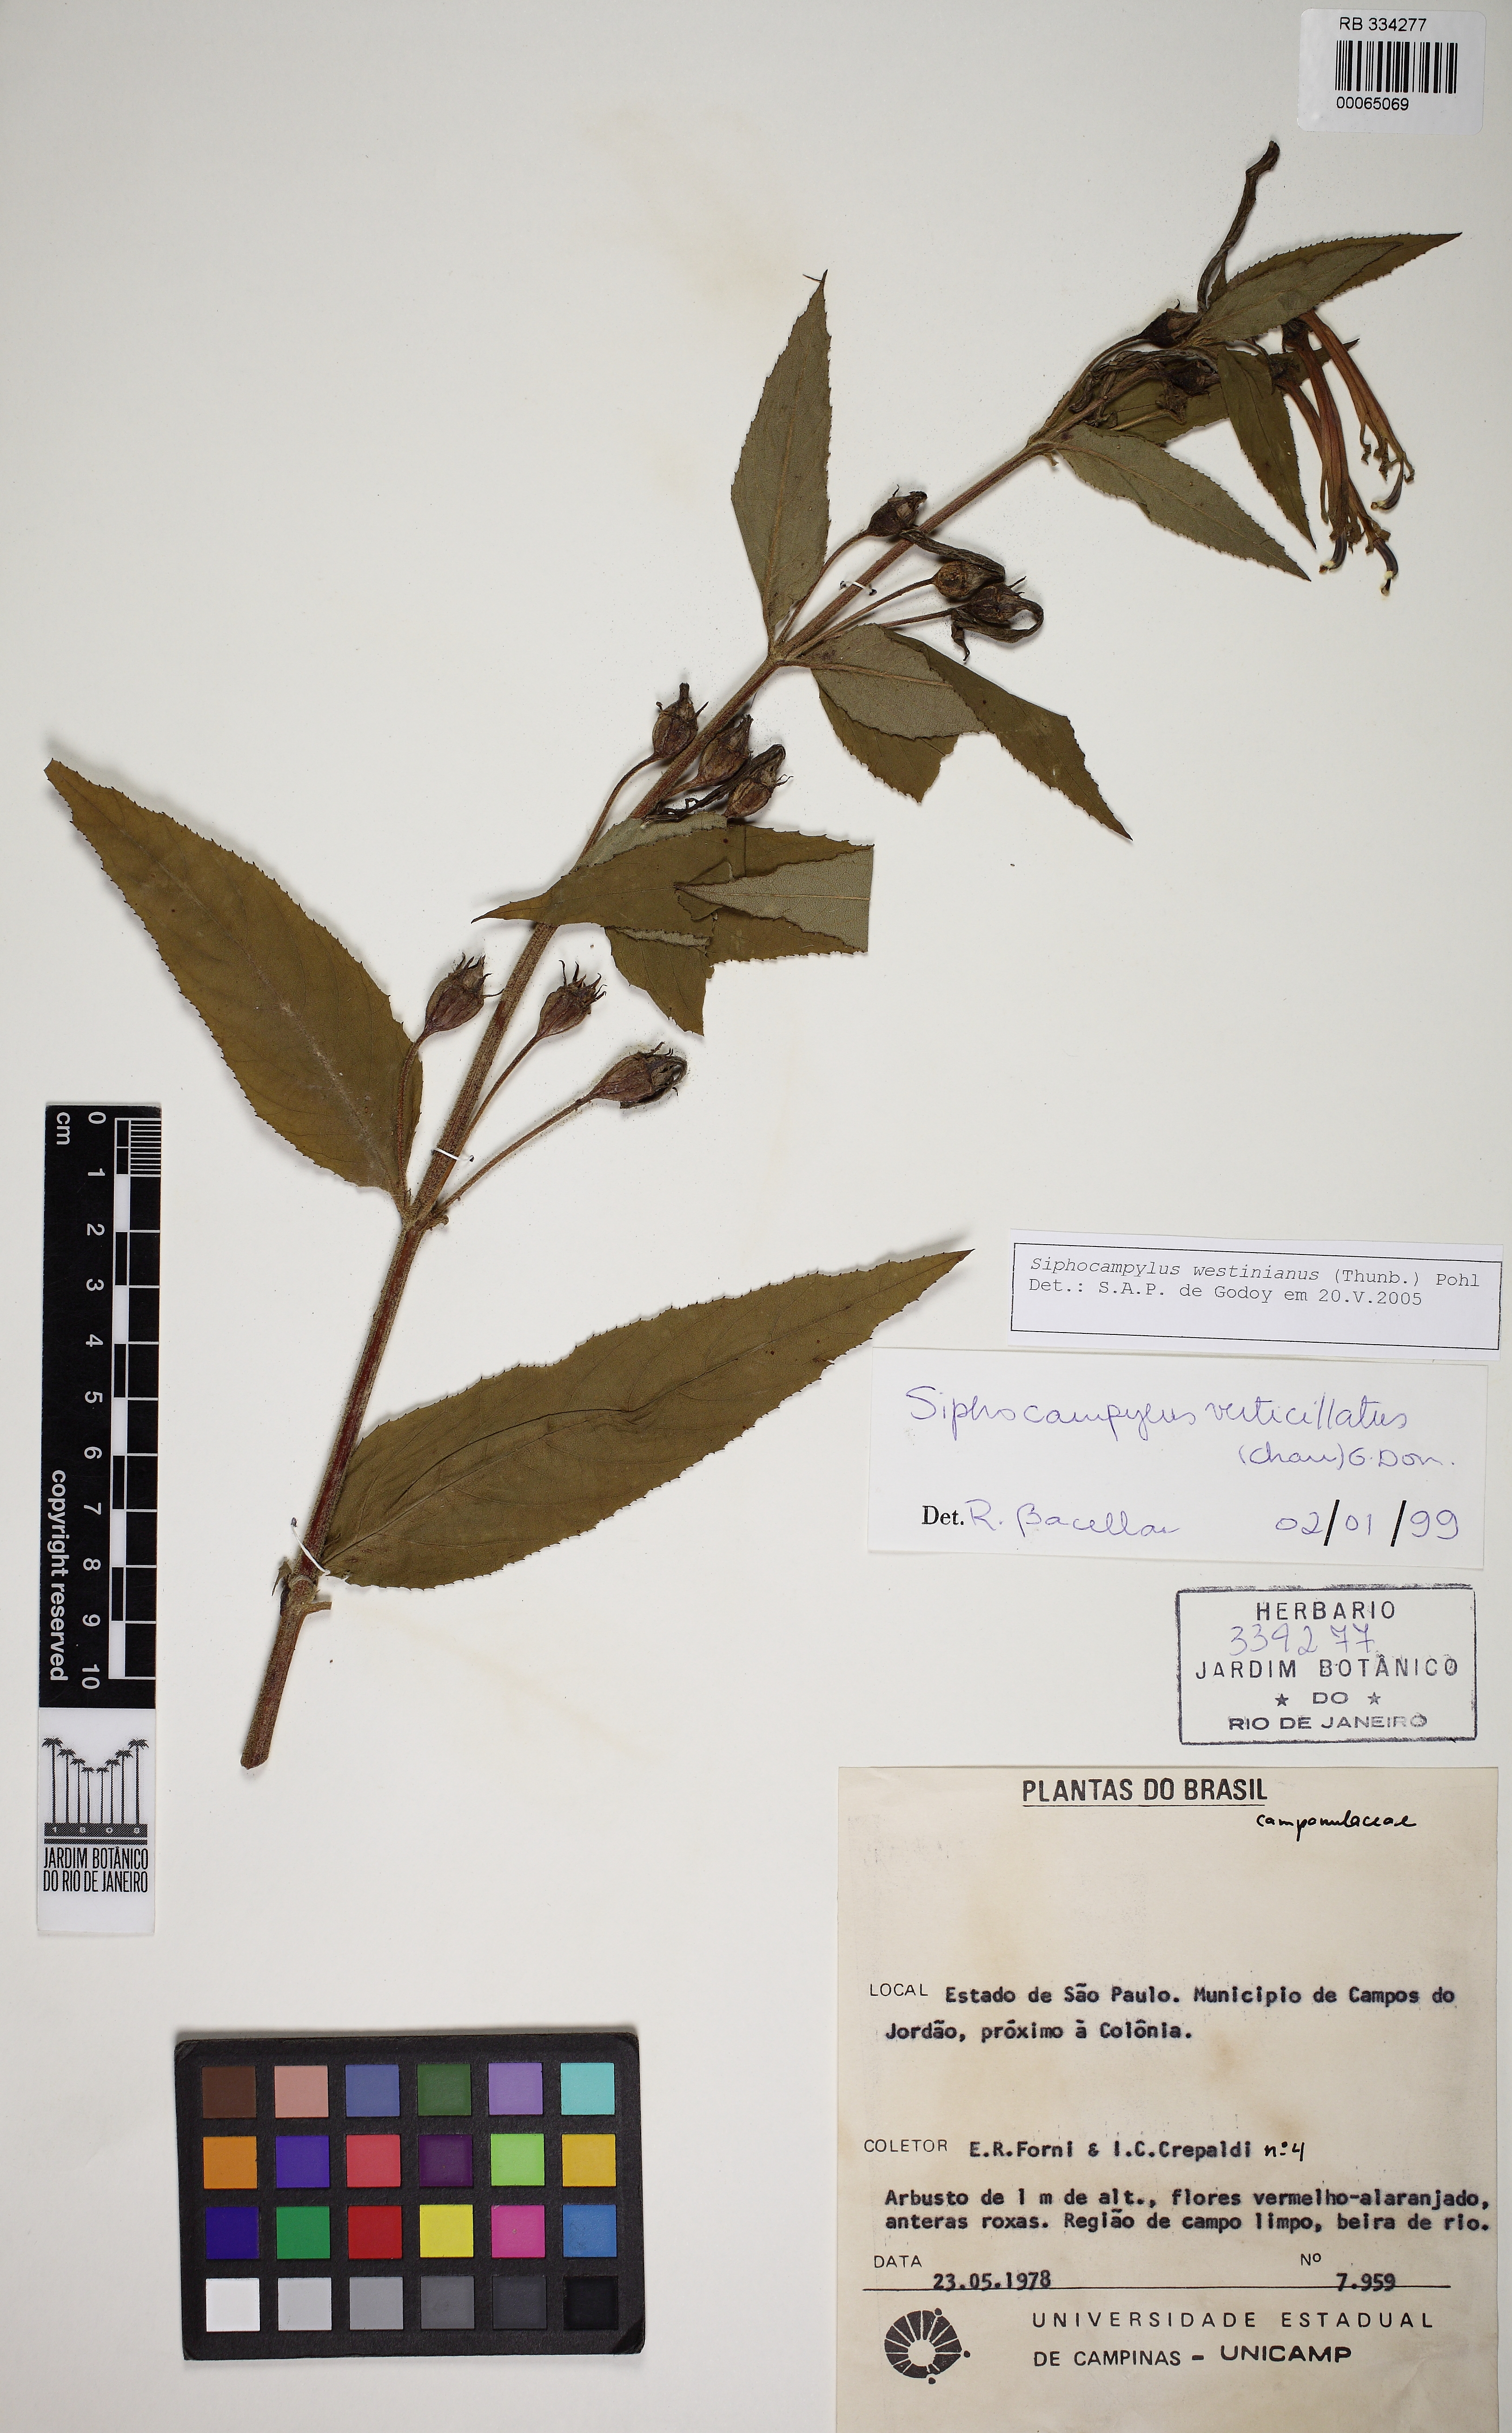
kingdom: Plantae
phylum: Tracheophyta
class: Magnoliopsida
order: Asterales
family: Campanulaceae
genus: Siphocampylus
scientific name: Siphocampylus westinianus
